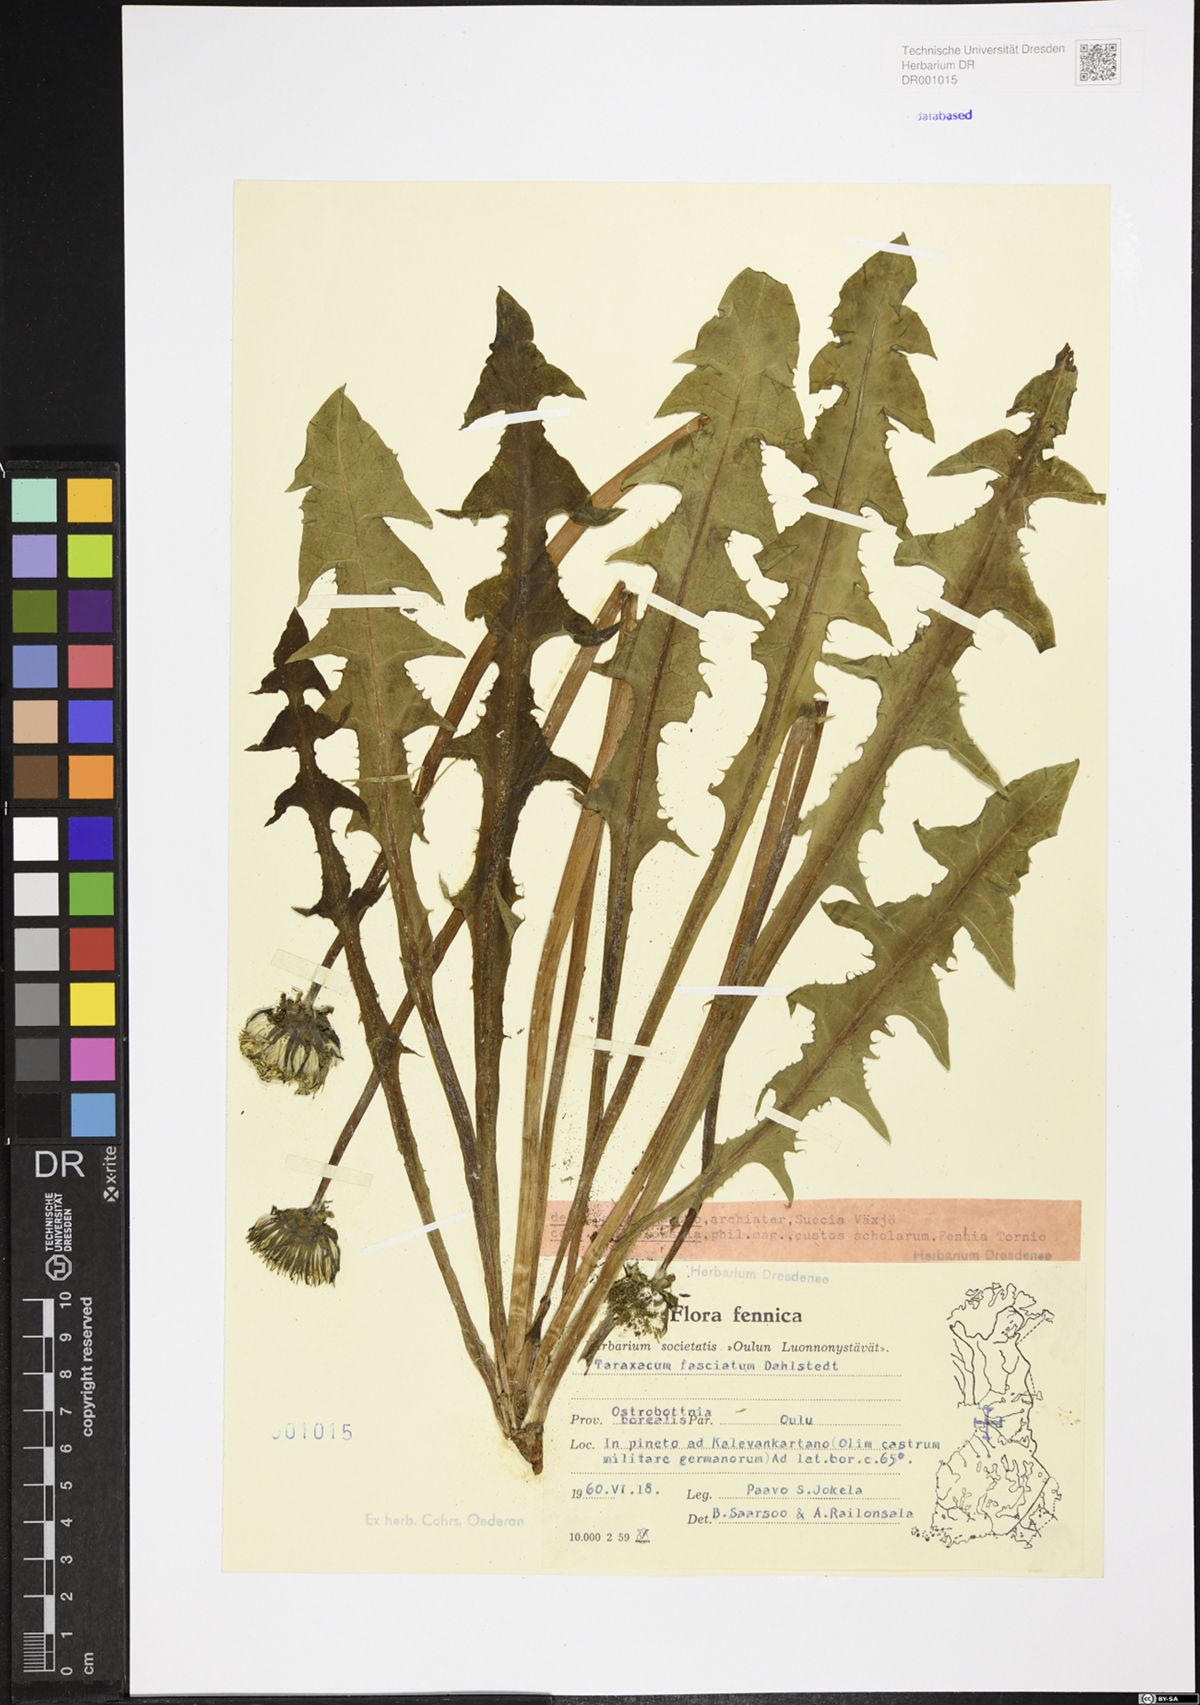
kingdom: Plantae
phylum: Tracheophyta
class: Magnoliopsida
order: Asterales
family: Asteraceae
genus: Taraxacum
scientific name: Taraxacum fasciatum
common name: Dense-bracted dandelion
